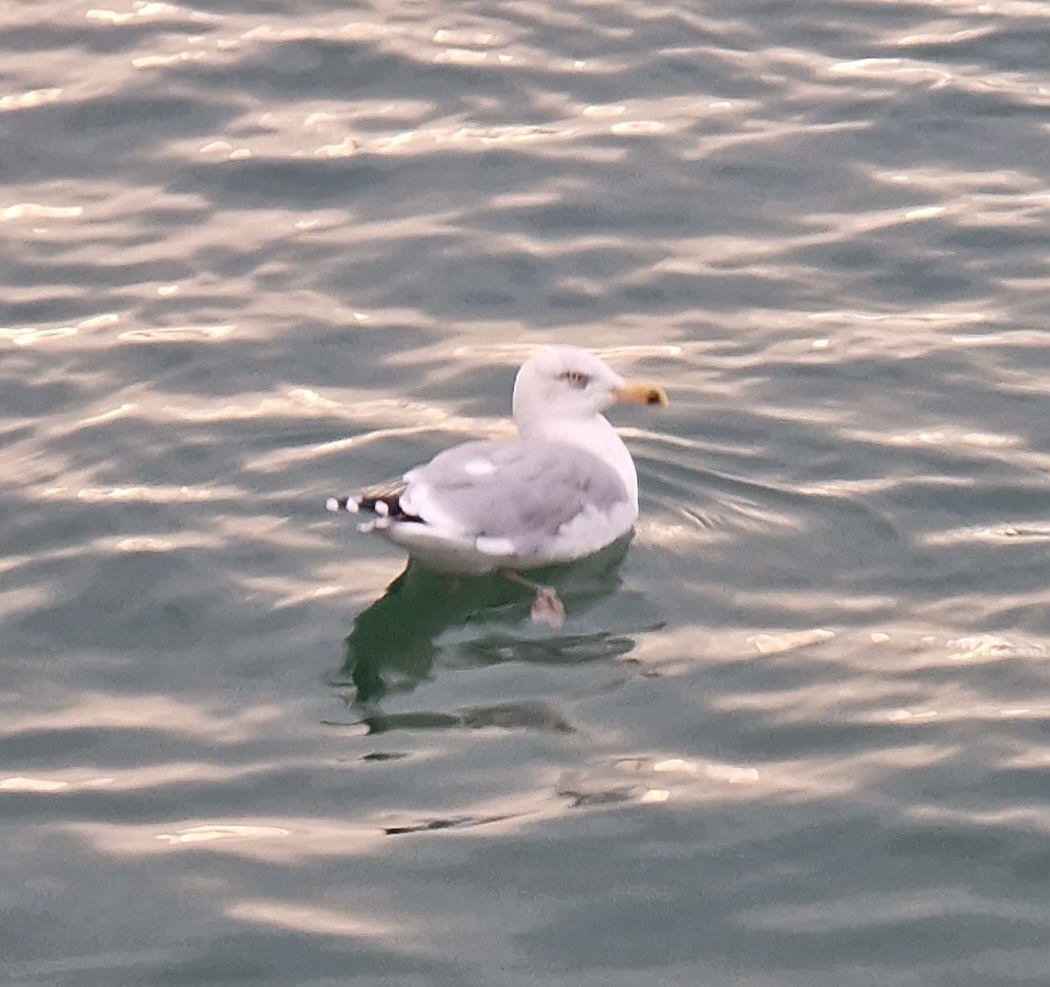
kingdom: Animalia
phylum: Chordata
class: Aves
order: Charadriiformes
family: Laridae
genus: Larus
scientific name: Larus argentatus
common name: Sølvmåge
